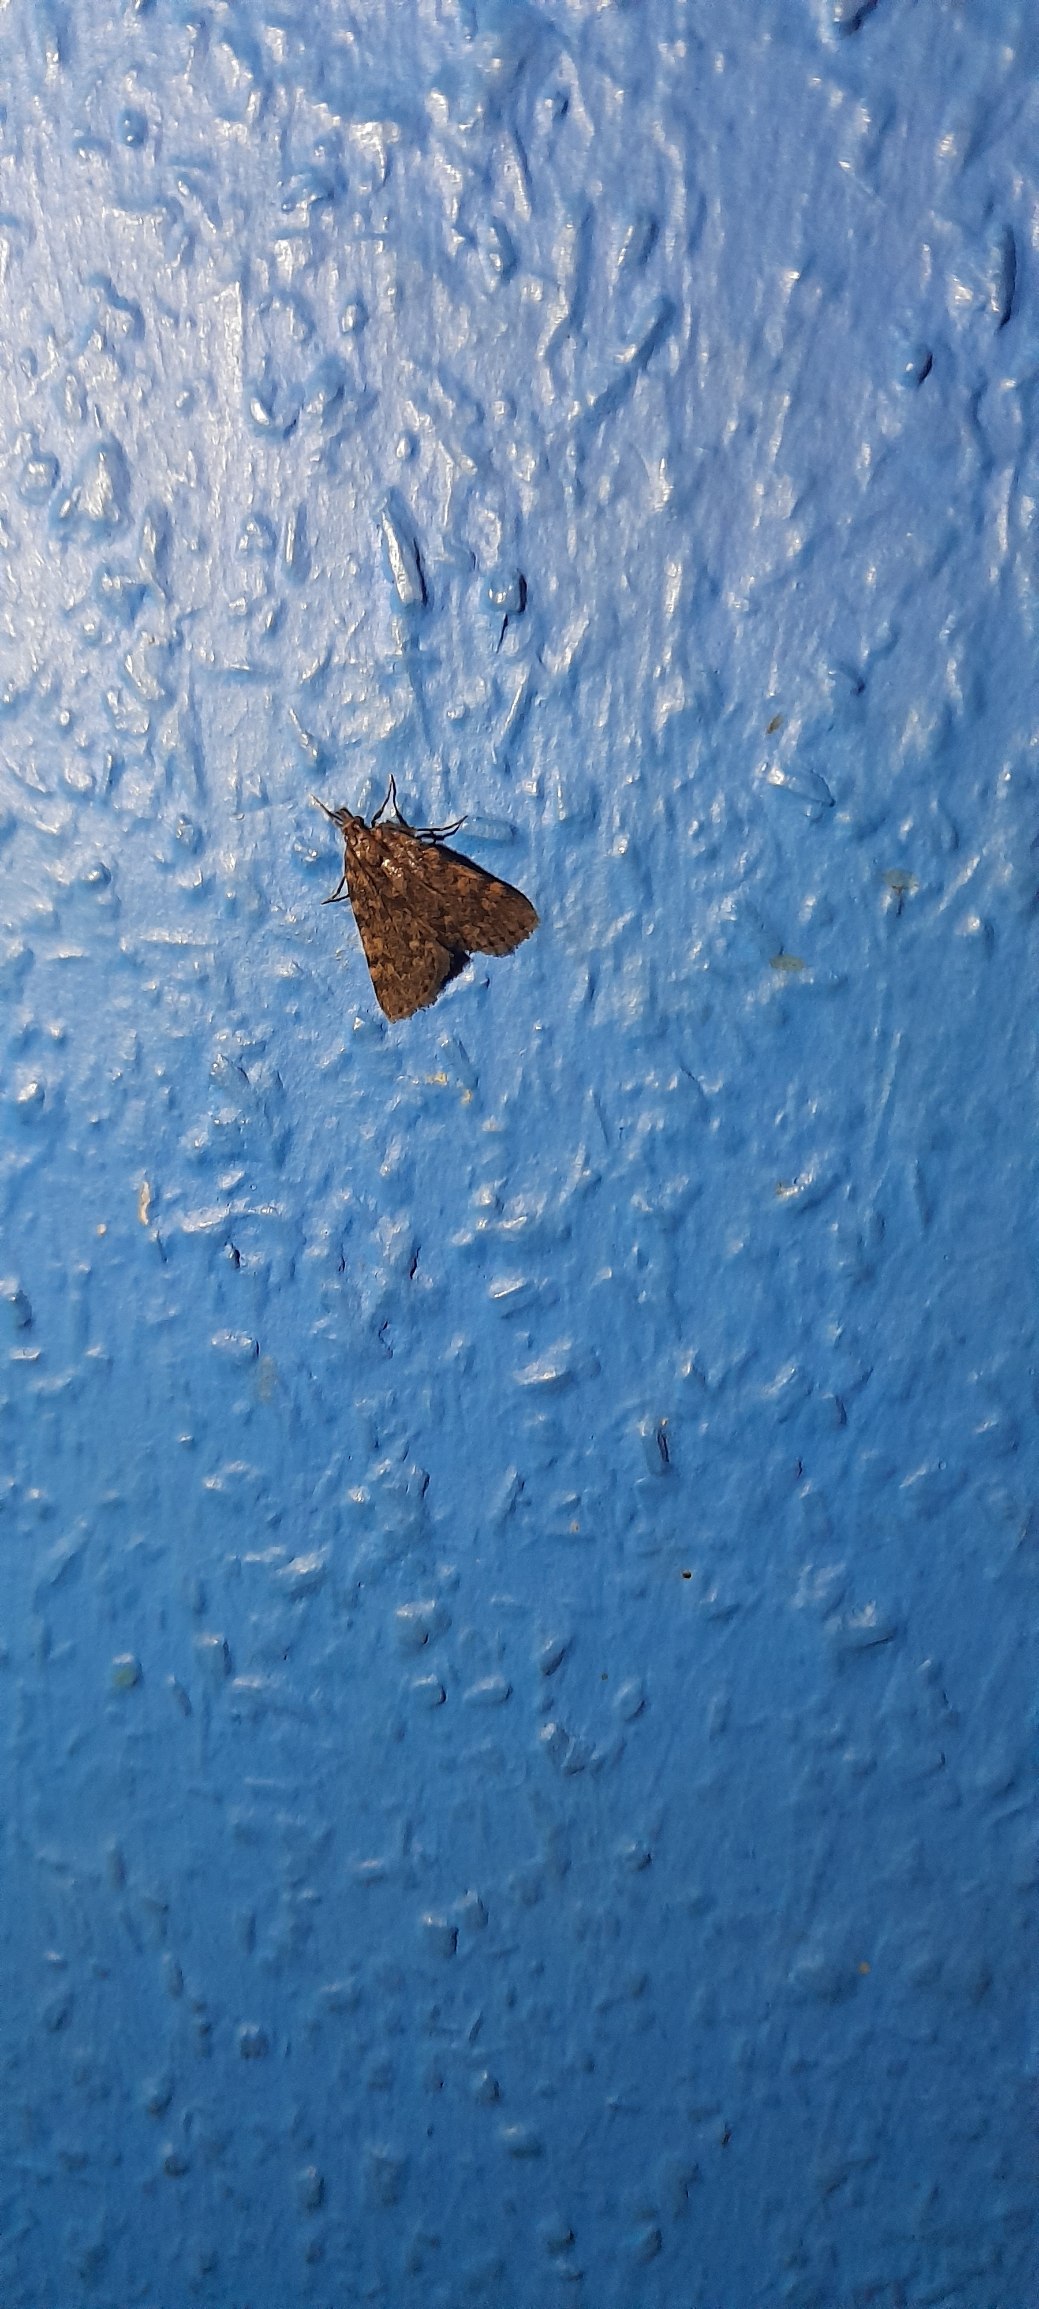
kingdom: Animalia
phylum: Arthropoda
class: Insecta
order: Lepidoptera
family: Pyralidae
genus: Aglossa
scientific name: Aglossa pinguinalis
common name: Fedtmøl
